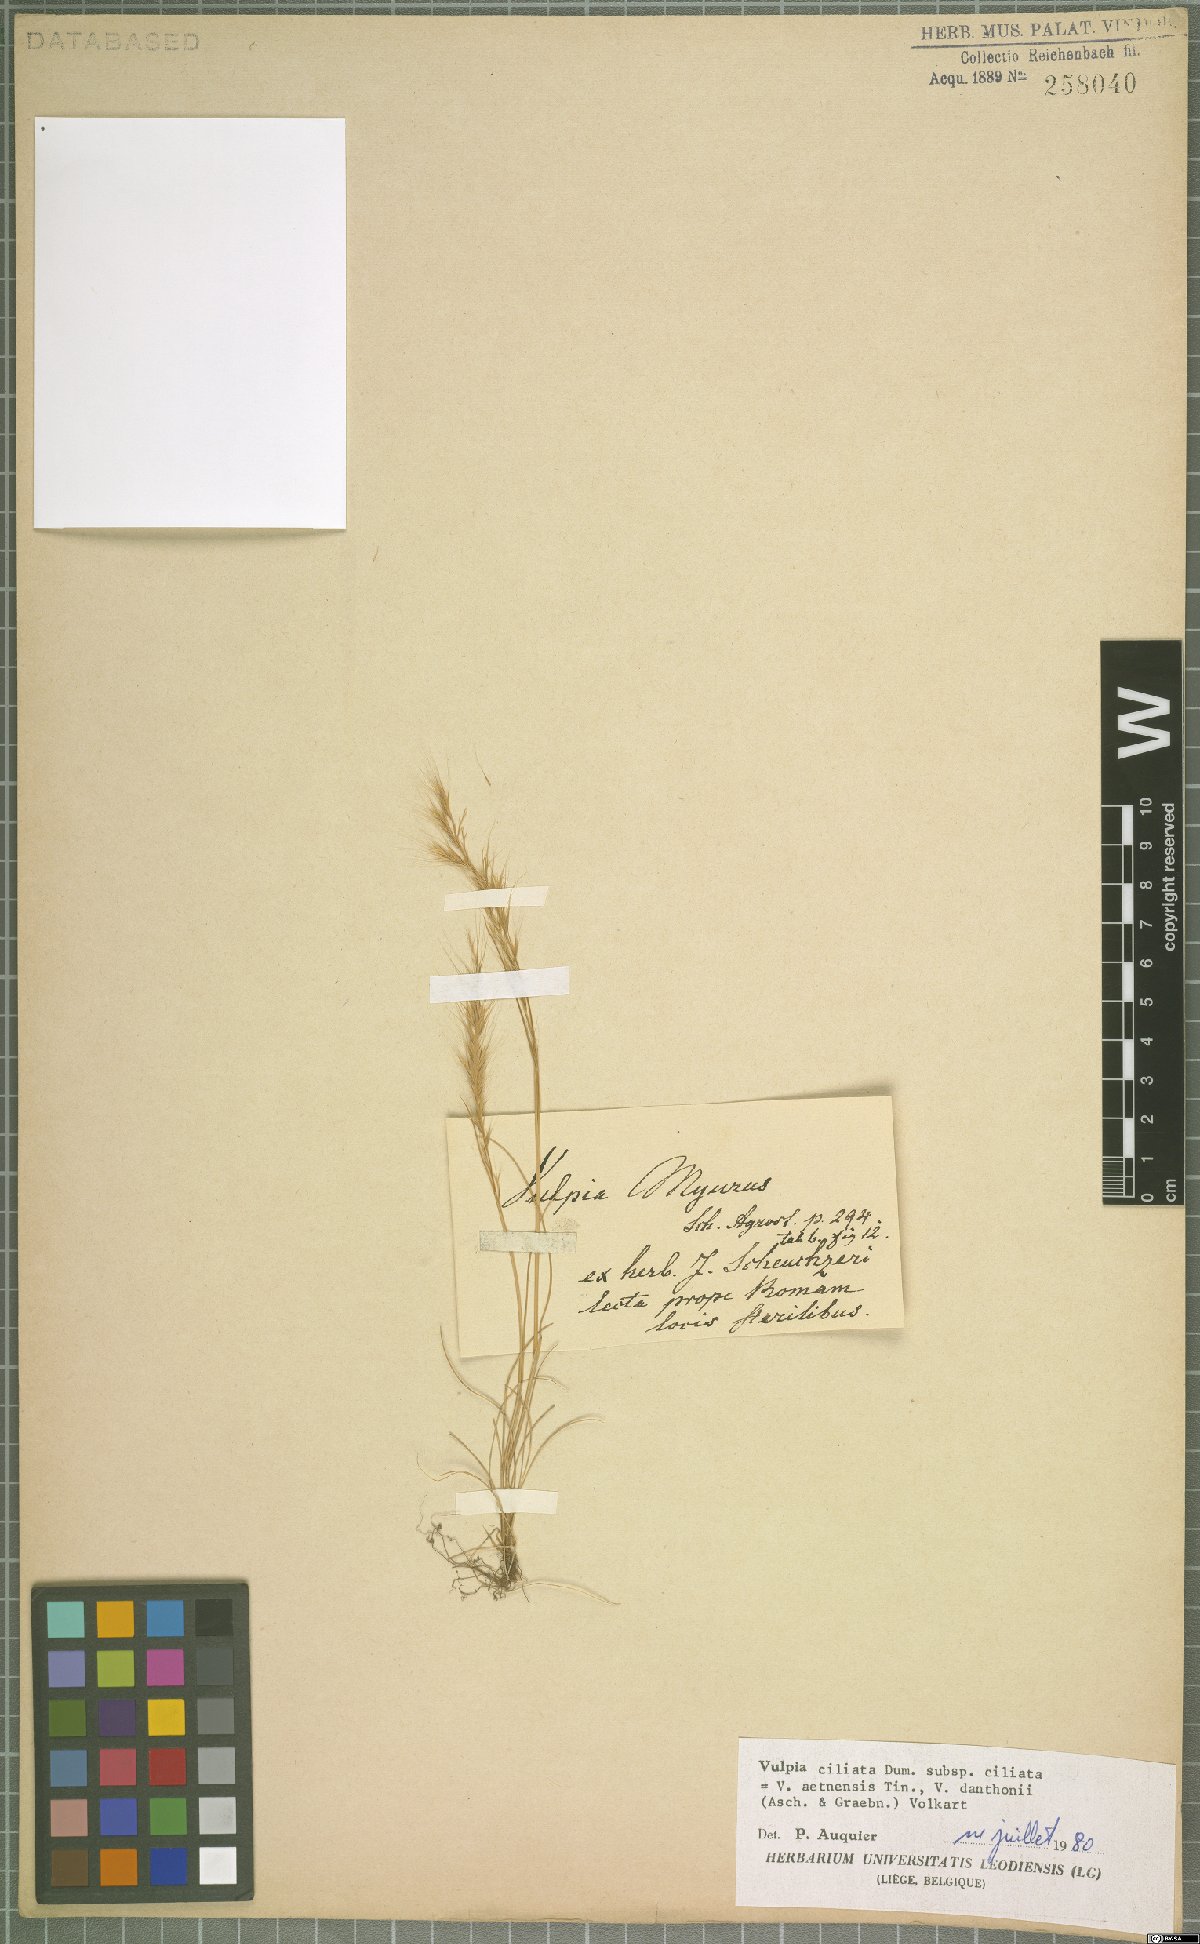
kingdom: Plantae
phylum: Tracheophyta
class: Liliopsida
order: Poales
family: Poaceae
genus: Festuca
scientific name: Festuca ambigua
